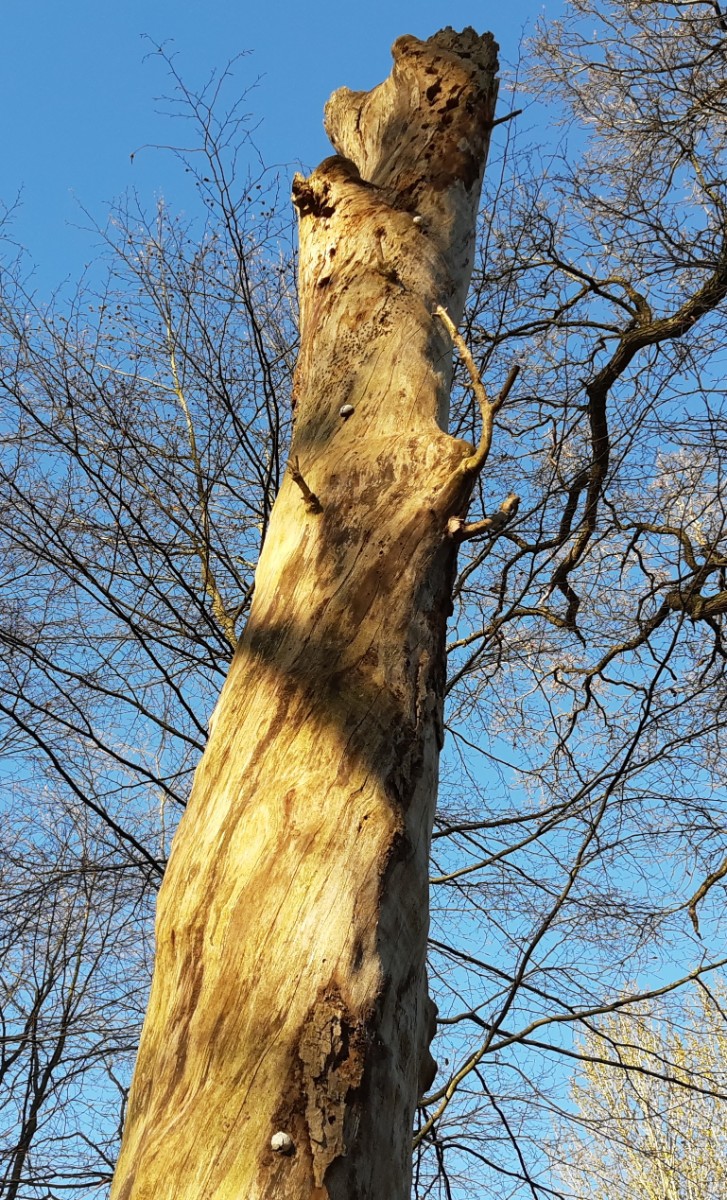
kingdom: Protozoa
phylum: Mycetozoa
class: Myxomycetes
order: Cribrariales
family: Tubiferaceae
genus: Reticularia
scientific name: Reticularia lycoperdon
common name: skinnende støvpude
